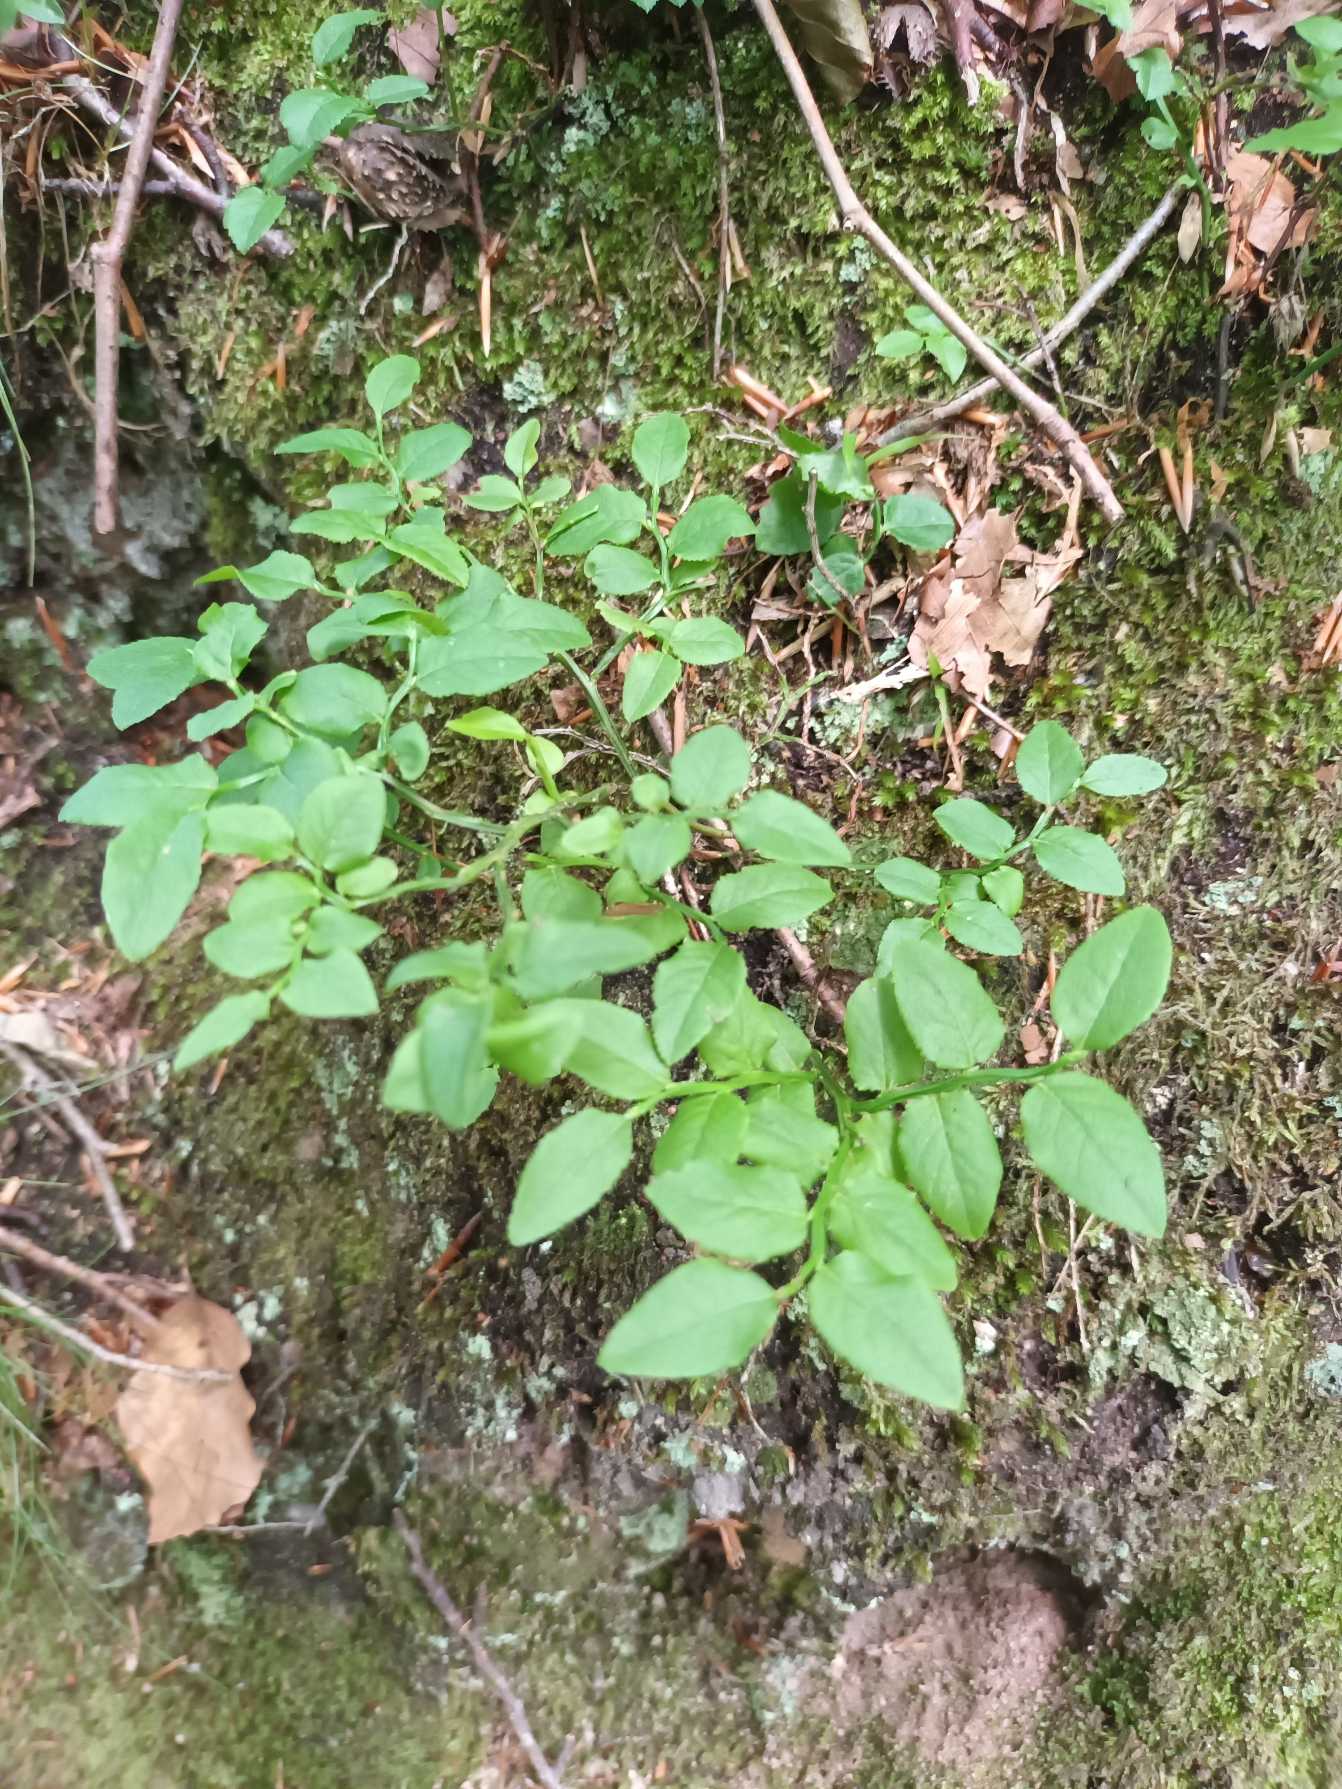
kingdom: Plantae
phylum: Tracheophyta
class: Magnoliopsida
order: Ericales
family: Ericaceae
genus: Vaccinium
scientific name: Vaccinium myrtillus
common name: Blåbær
